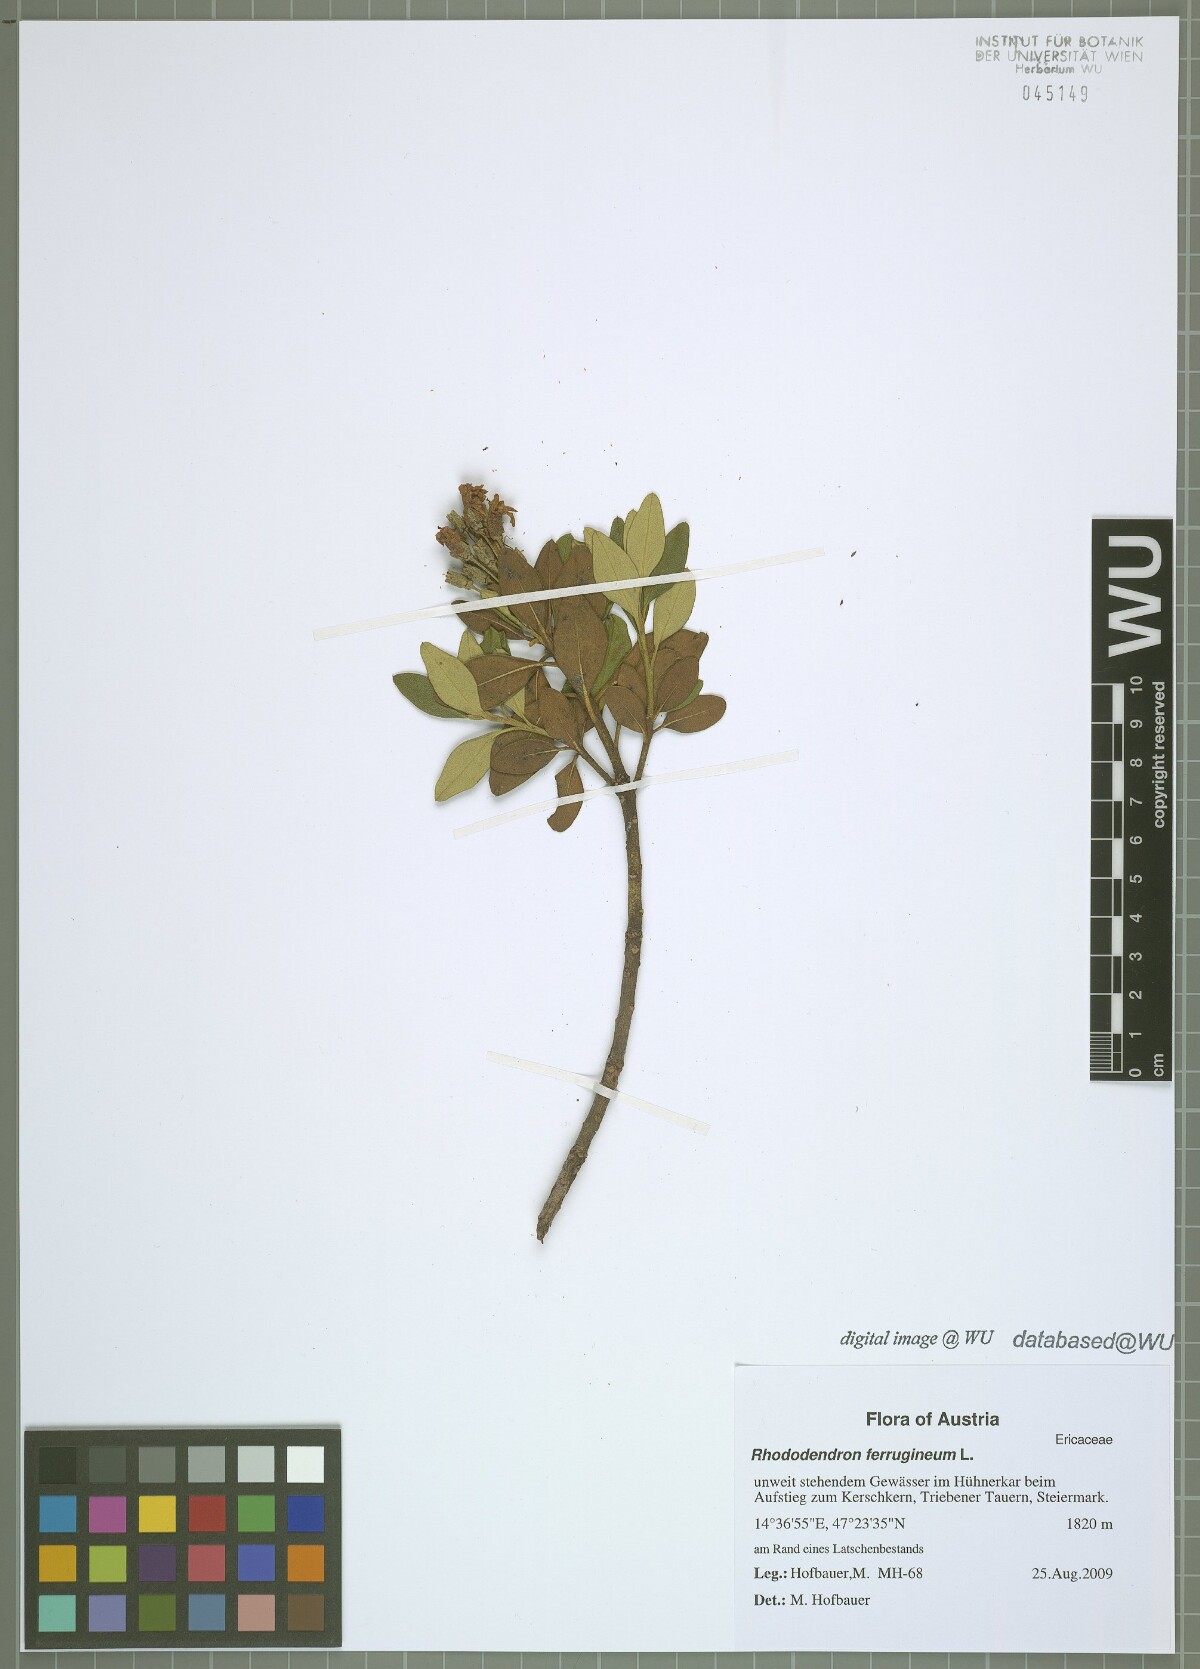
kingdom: Plantae
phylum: Tracheophyta
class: Magnoliopsida
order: Ericales
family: Ericaceae
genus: Rhododendron
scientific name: Rhododendron ferrugineum
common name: Alpenrose
